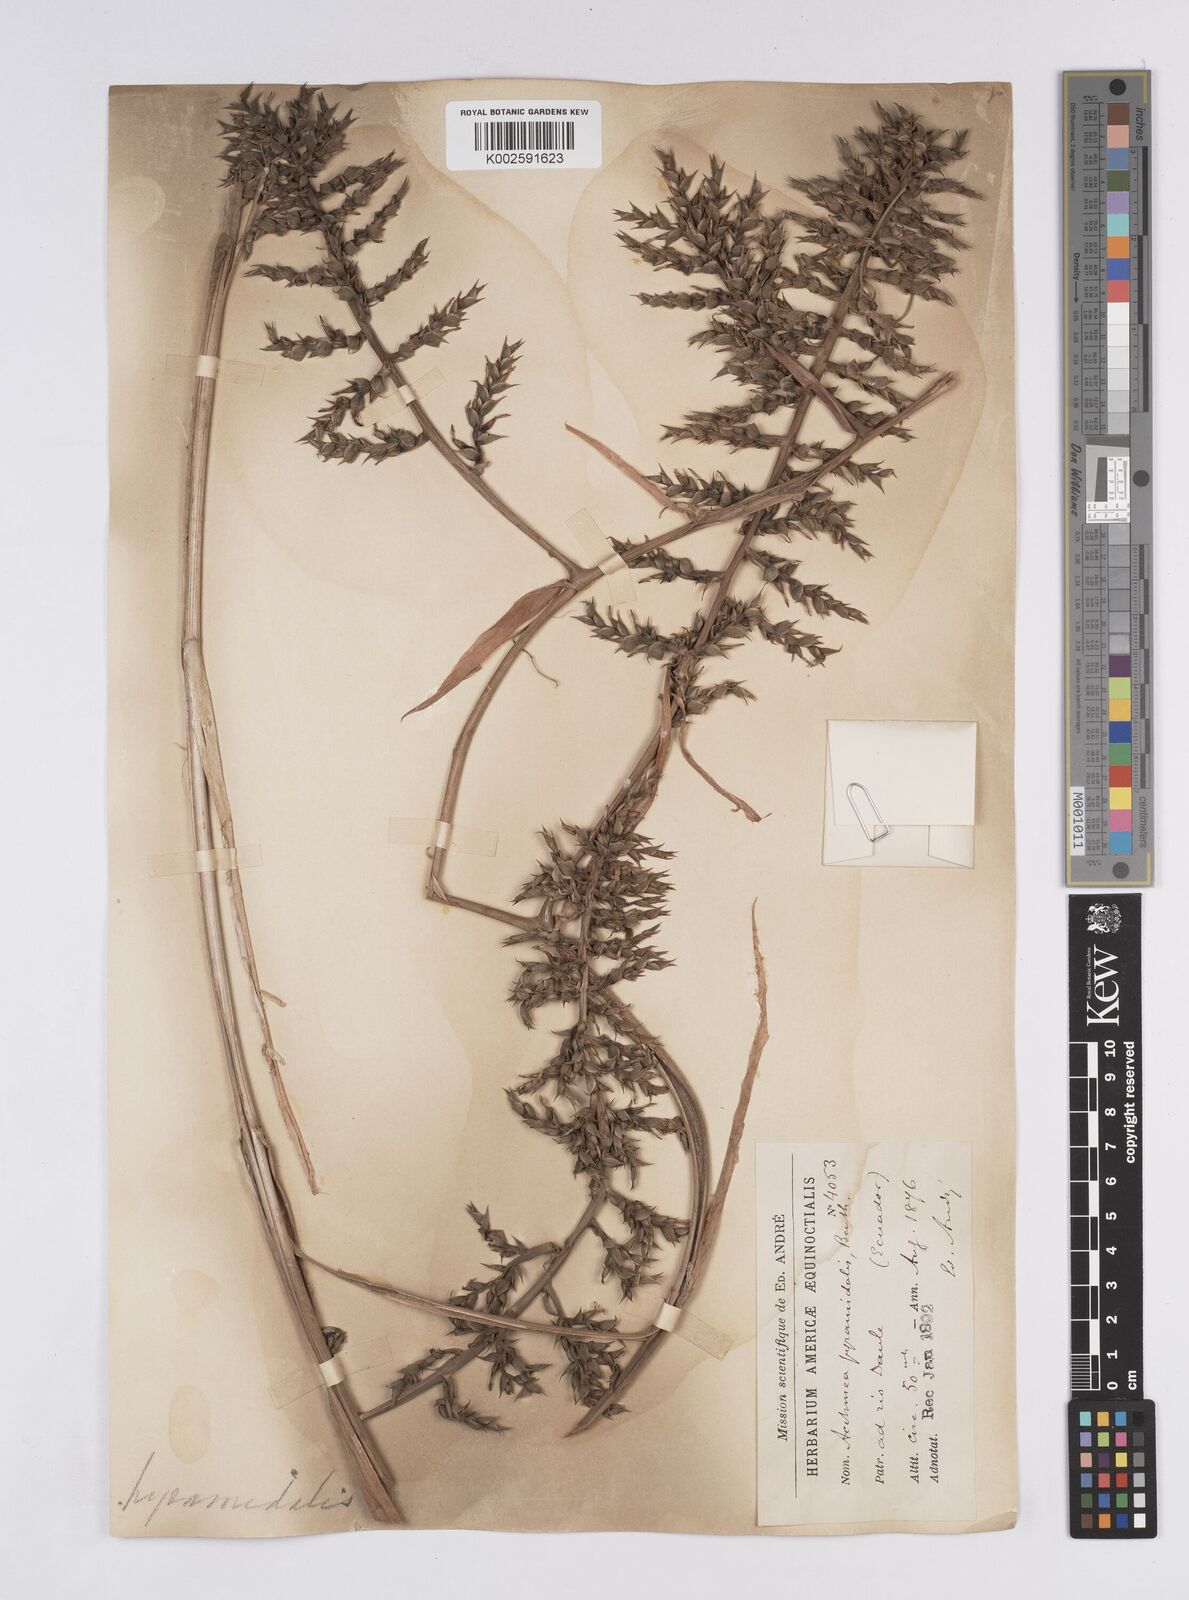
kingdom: Plantae
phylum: Tracheophyta
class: Liliopsida
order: Poales
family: Bromeliaceae
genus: Aechmea
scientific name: Aechmea pyramidalis
